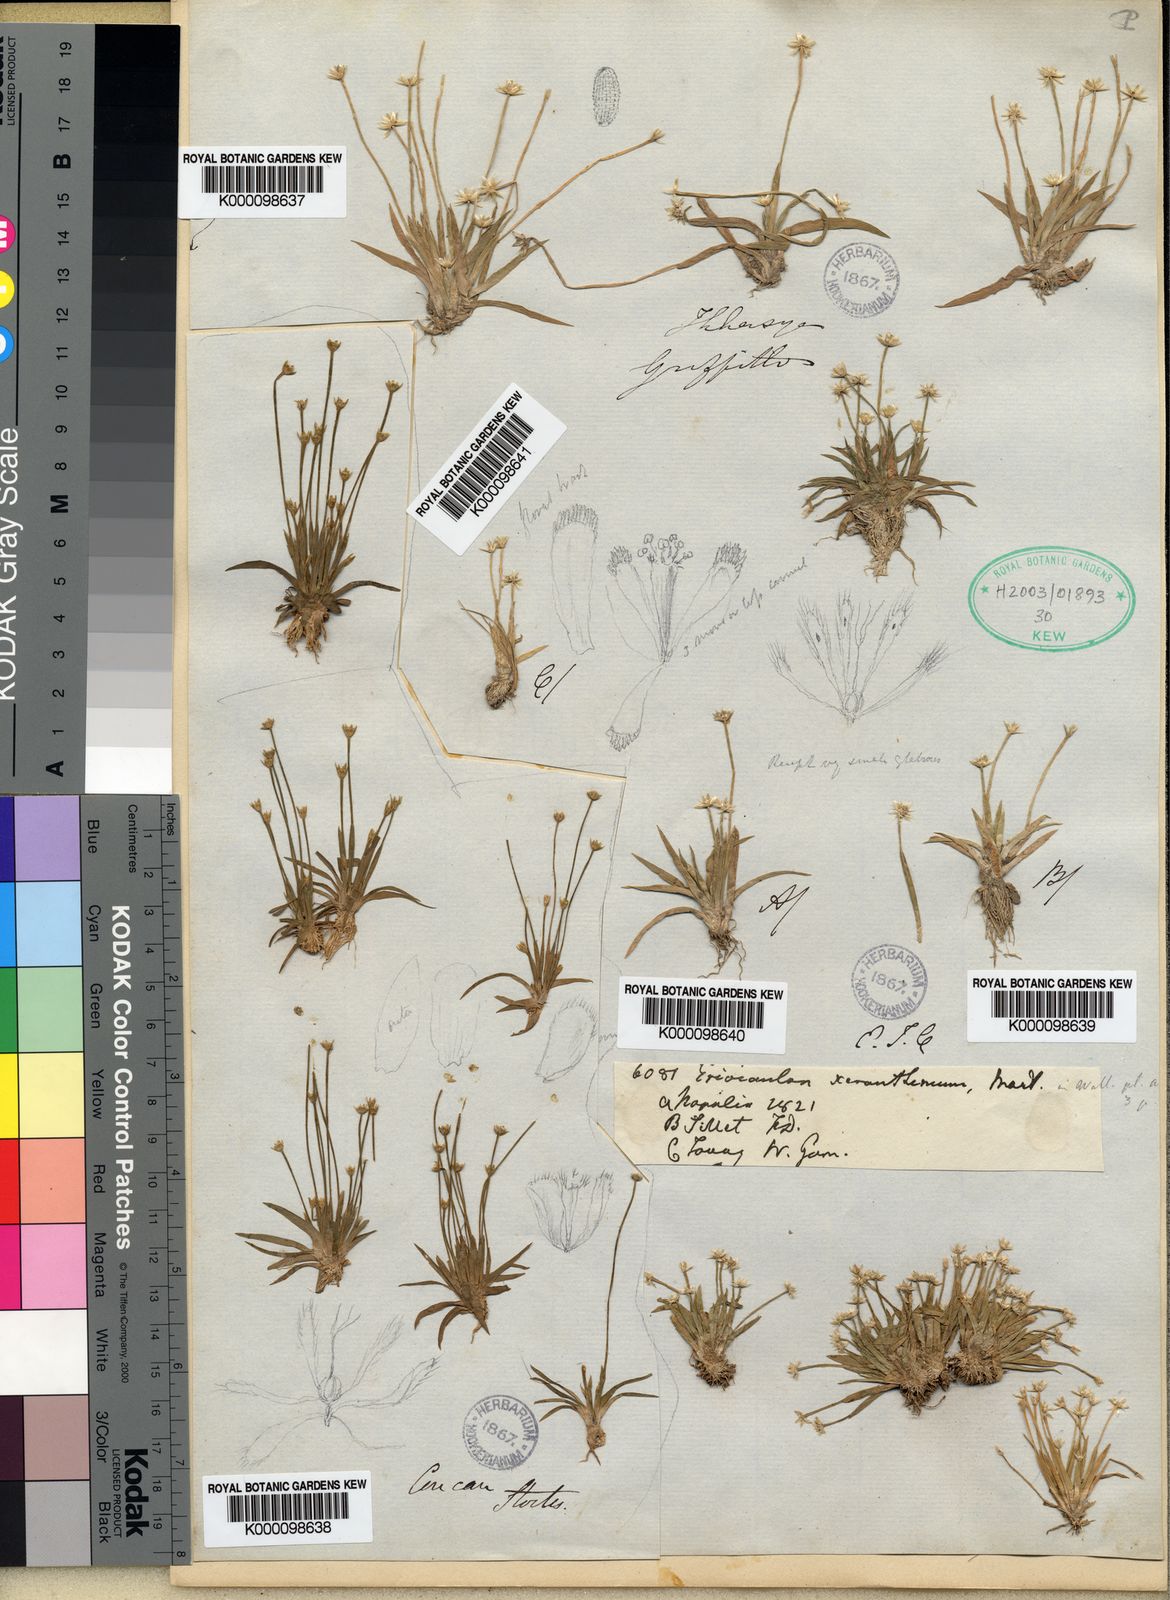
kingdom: Plantae
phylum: Tracheophyta
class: Liliopsida
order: Poales
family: Eriocaulaceae
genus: Eriocaulon
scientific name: Eriocaulon xeranthemum
